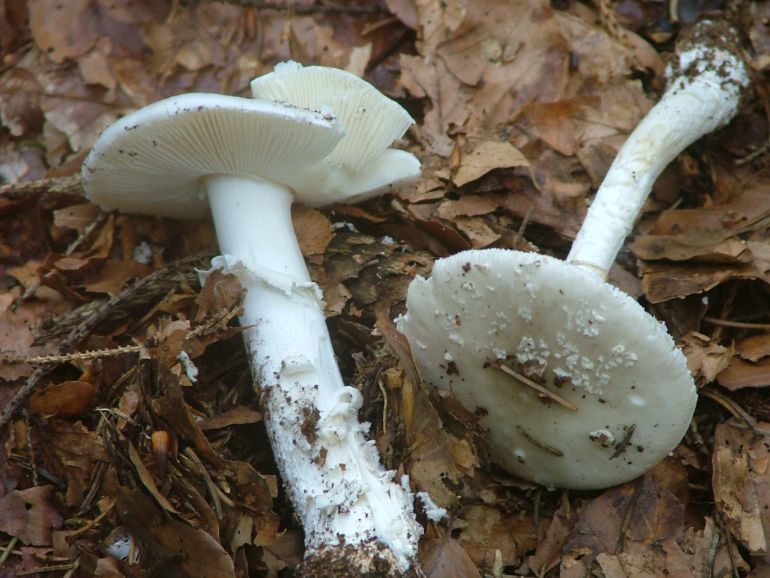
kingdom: Fungi
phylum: Basidiomycota
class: Agaricomycetes
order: Agaricales
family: Amanitaceae
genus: Amanita
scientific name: Amanita
